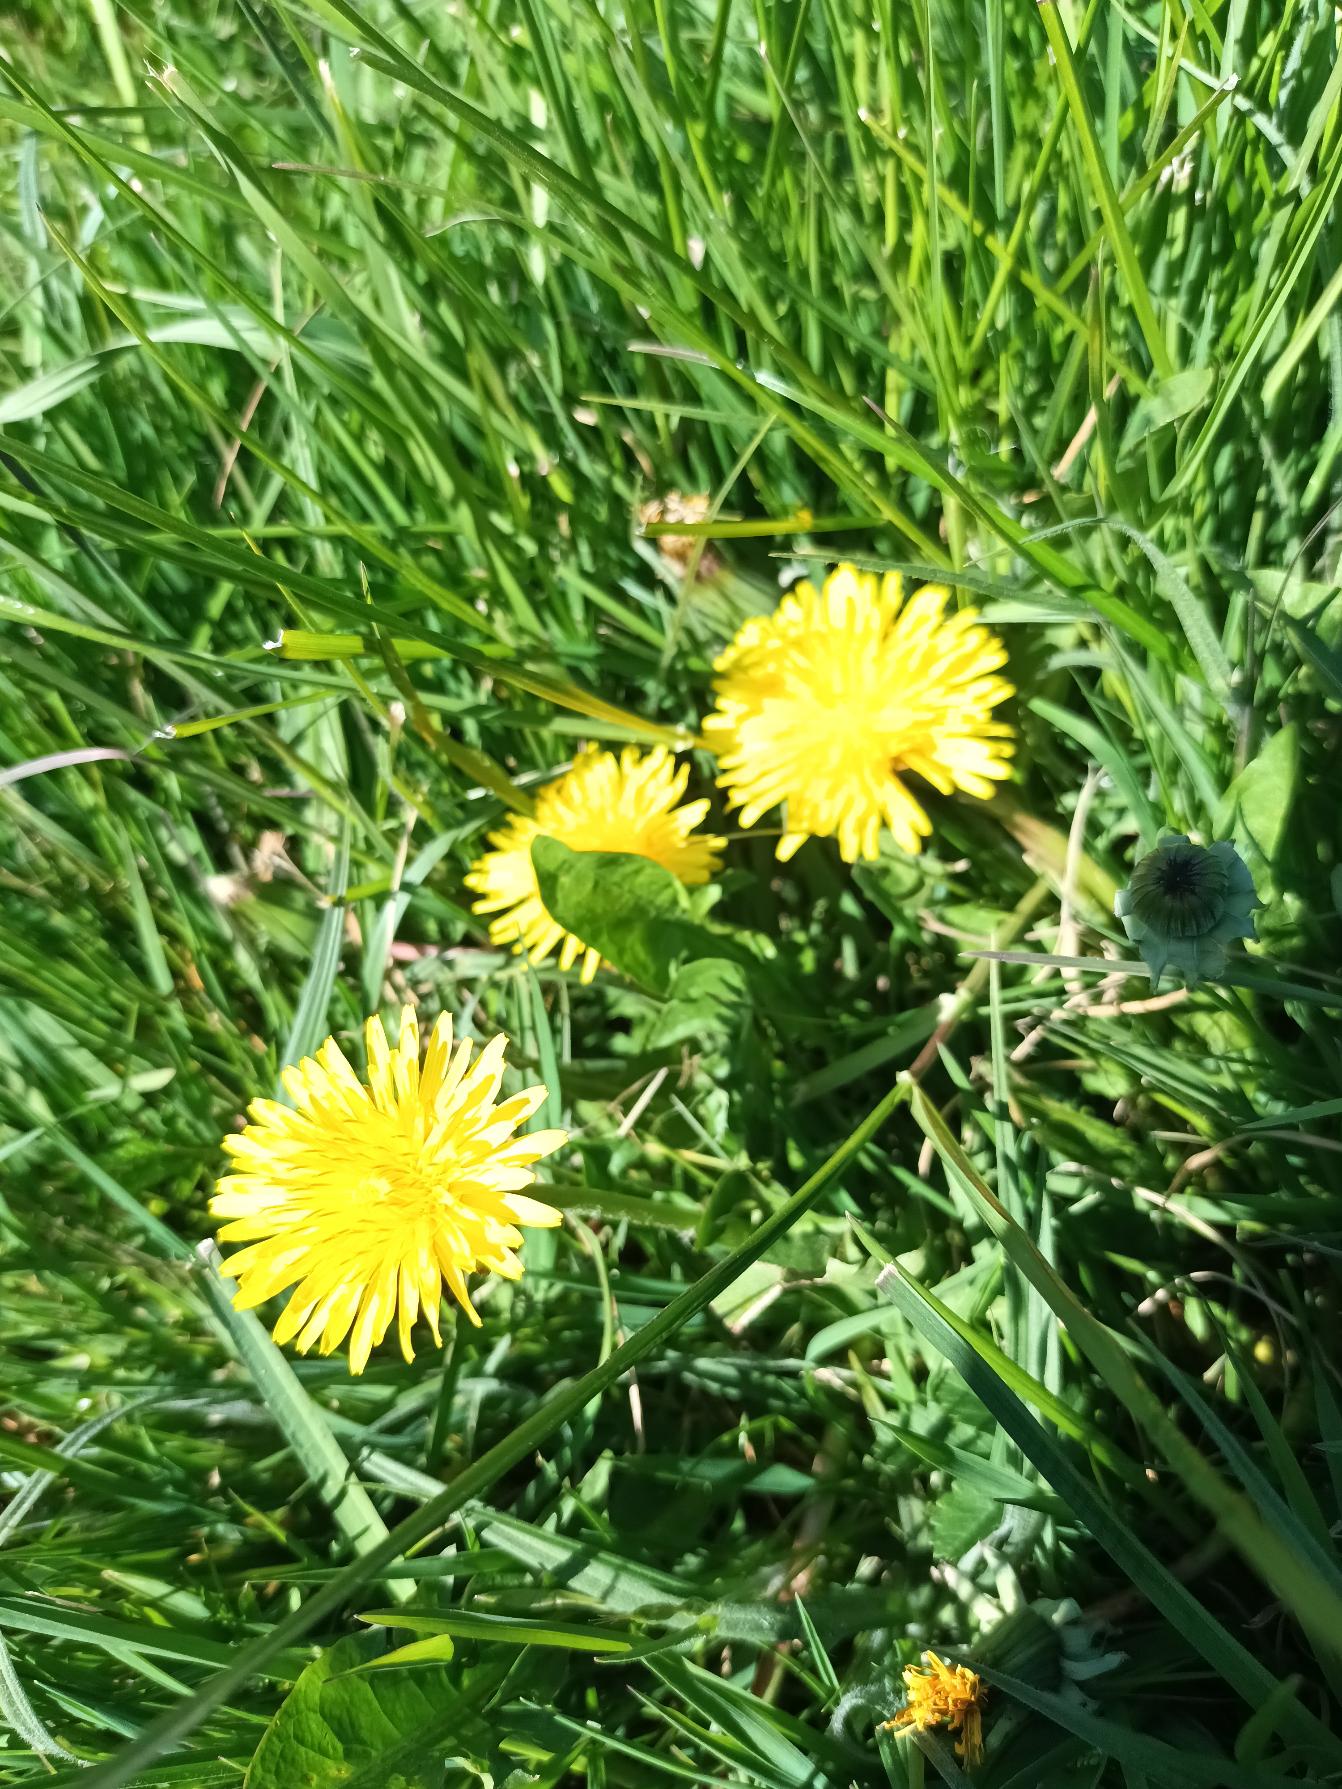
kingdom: Plantae
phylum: Tracheophyta
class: Magnoliopsida
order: Asterales
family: Asteraceae
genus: Taraxacum
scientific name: Taraxacum
